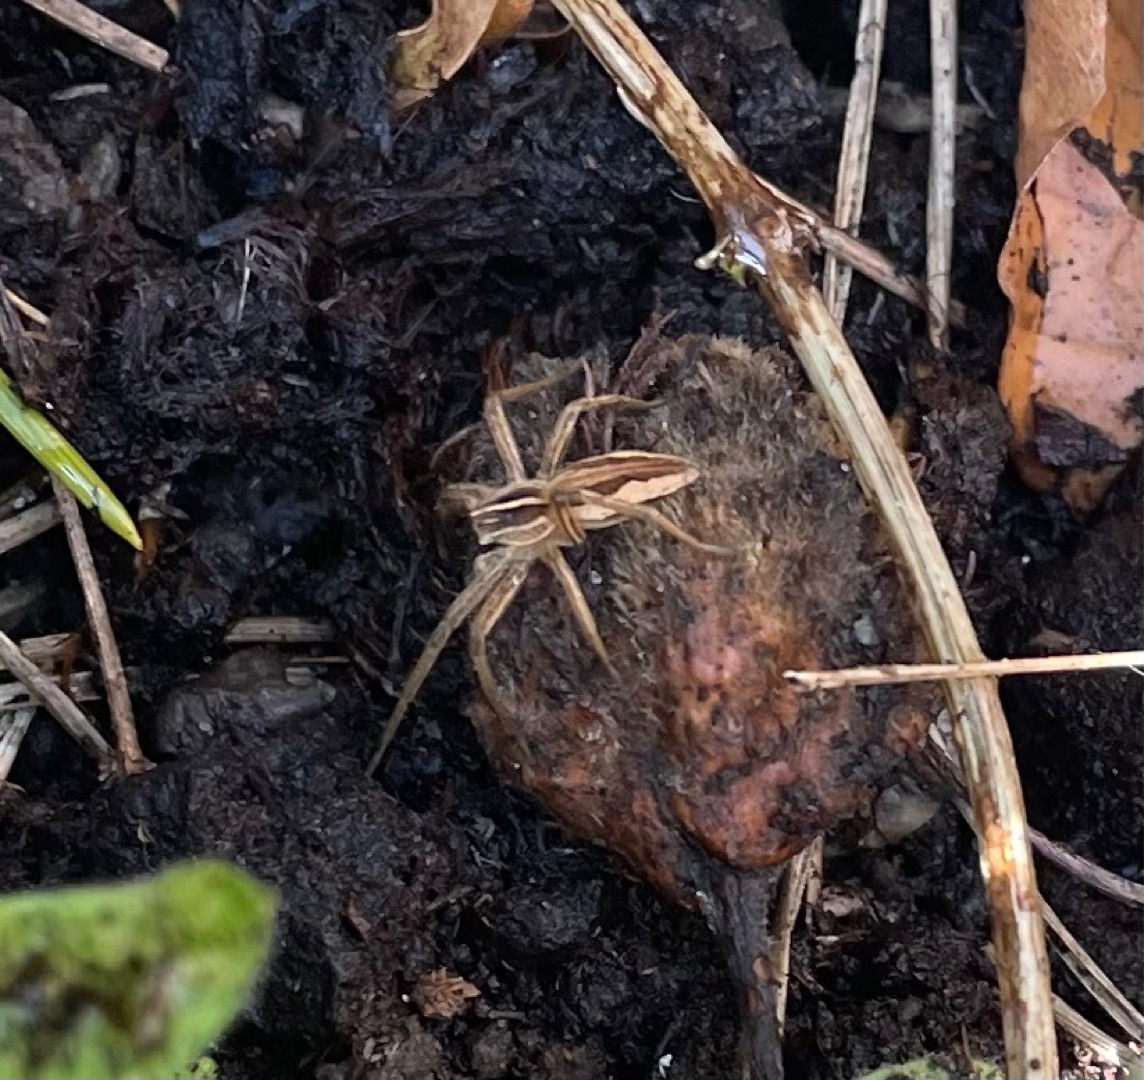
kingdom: Animalia
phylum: Arthropoda
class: Arachnida
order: Araneae
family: Pisauridae
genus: Pisaura
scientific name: Pisaura mirabilis
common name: Almindelig rovedderkop
